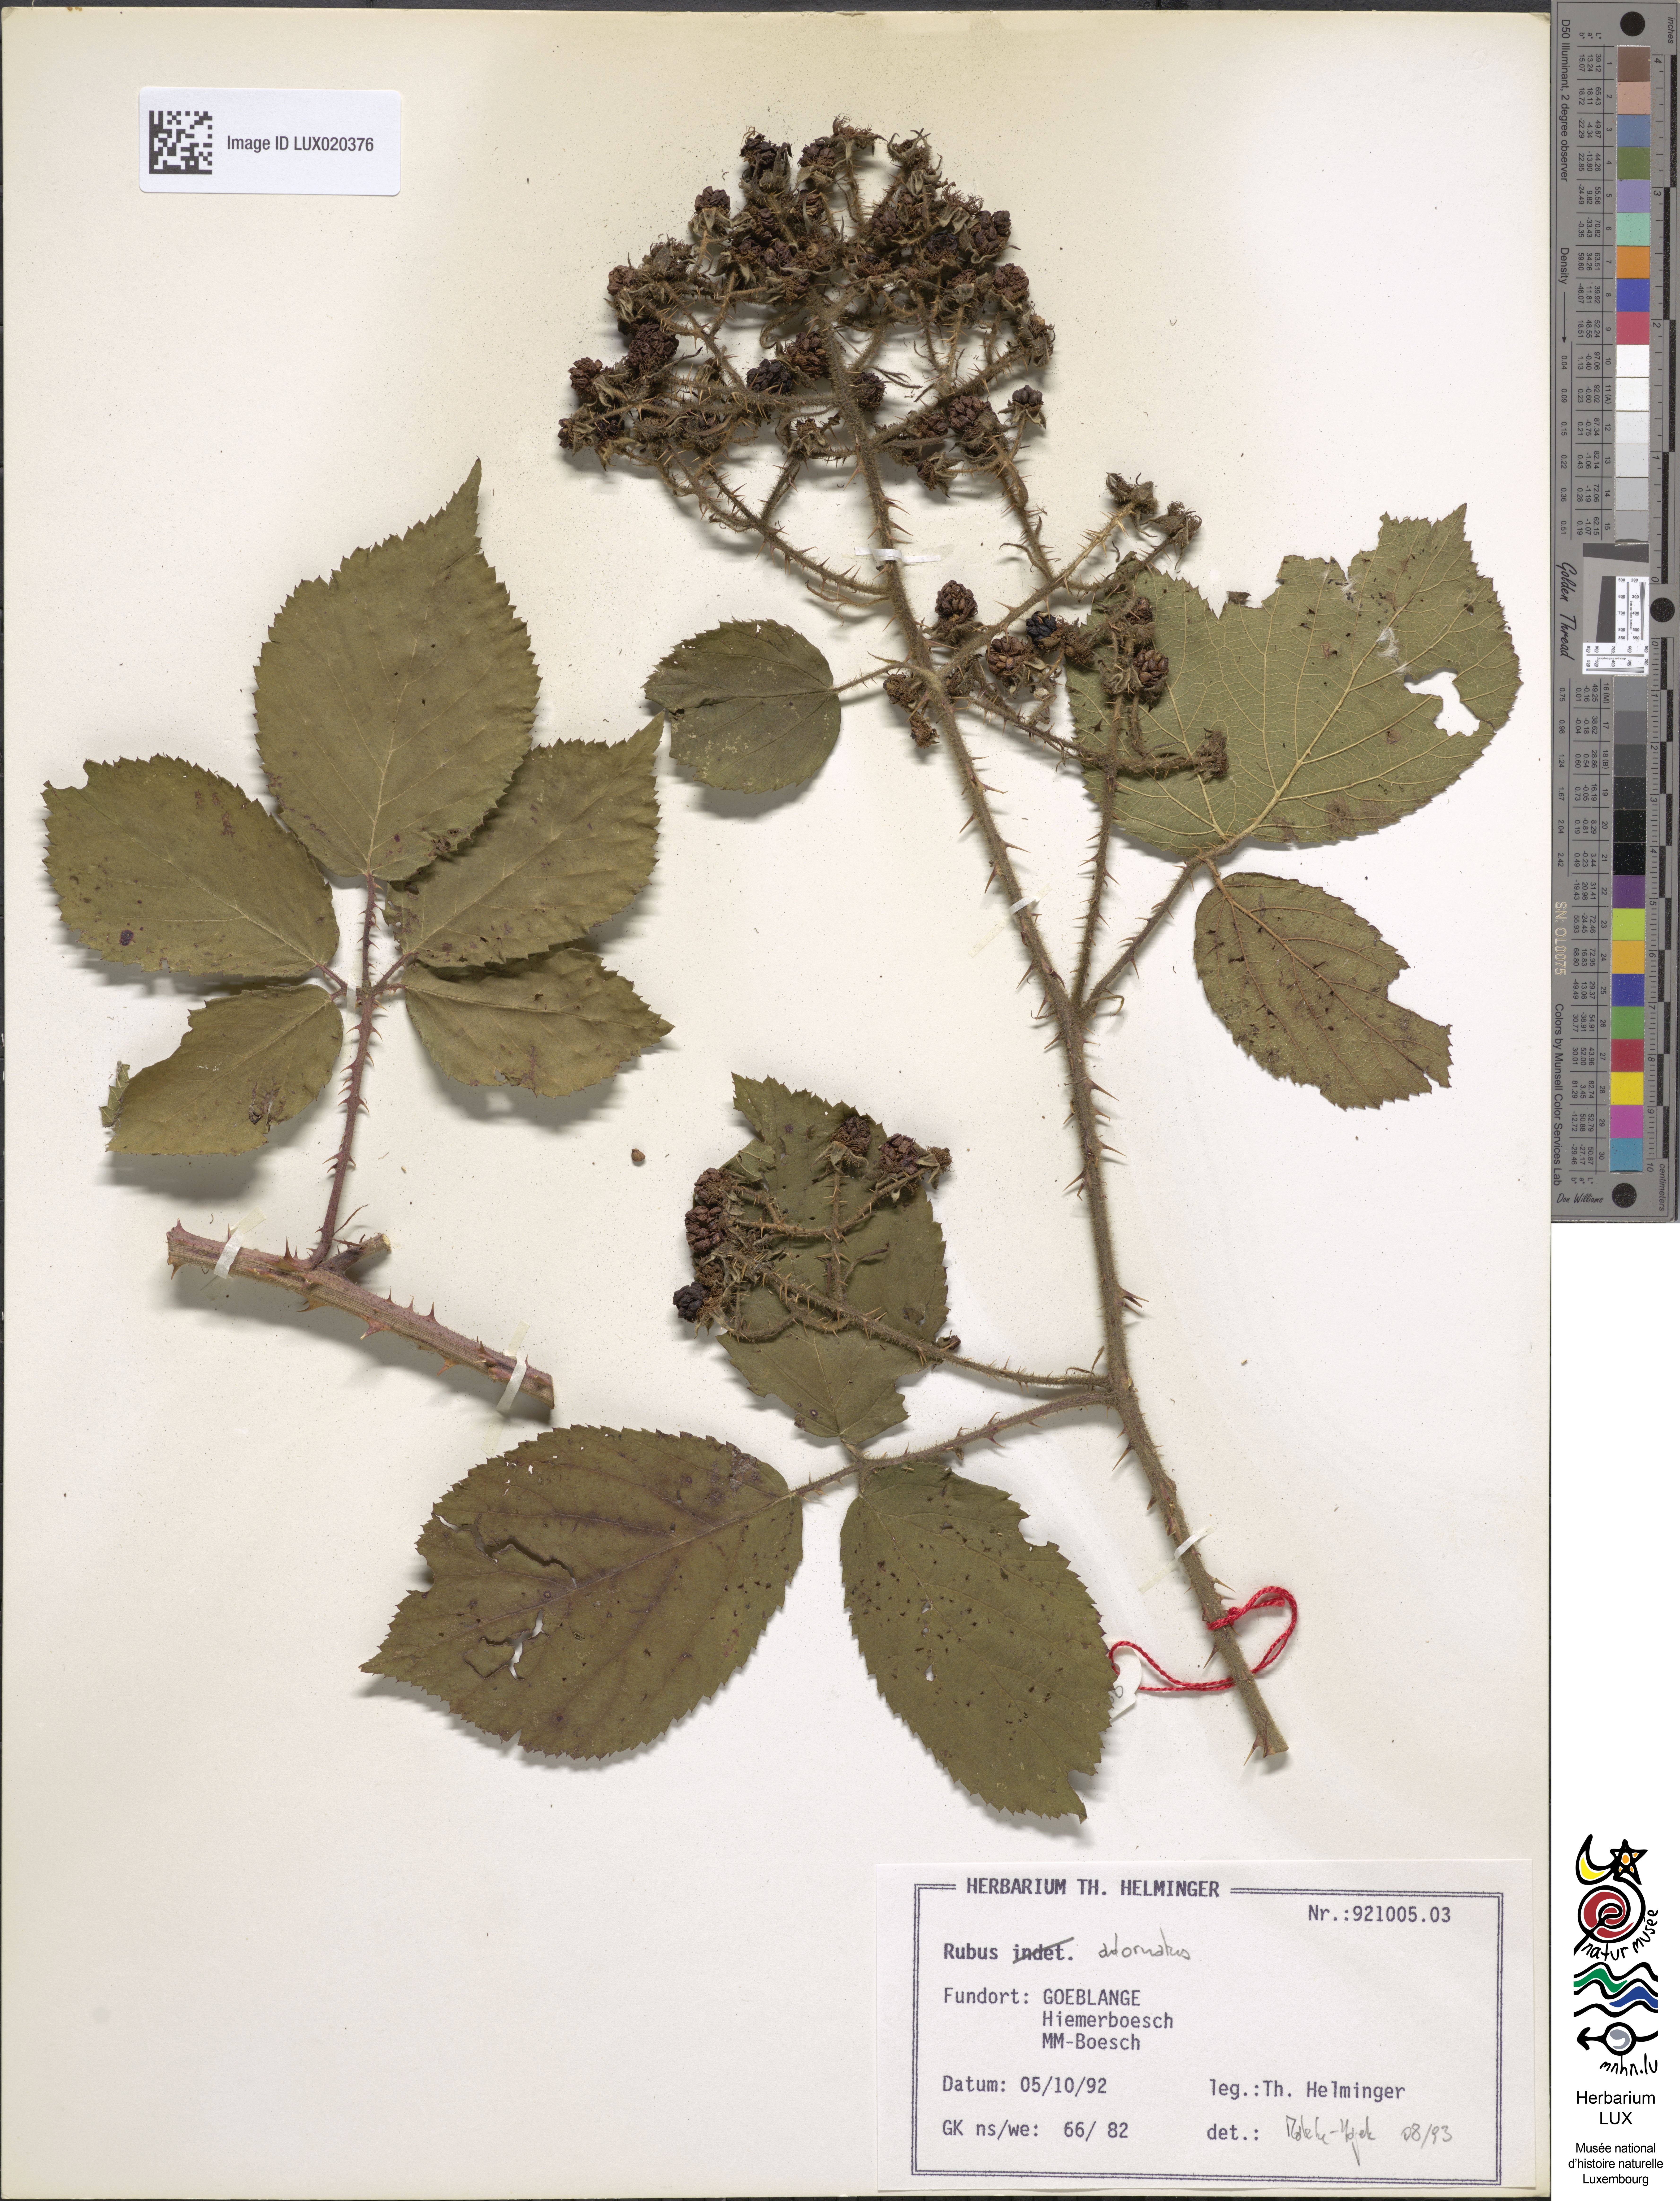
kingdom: Plantae
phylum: Tracheophyta
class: Magnoliopsida
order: Rosales
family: Rosaceae
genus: Rubus
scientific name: Rubus
